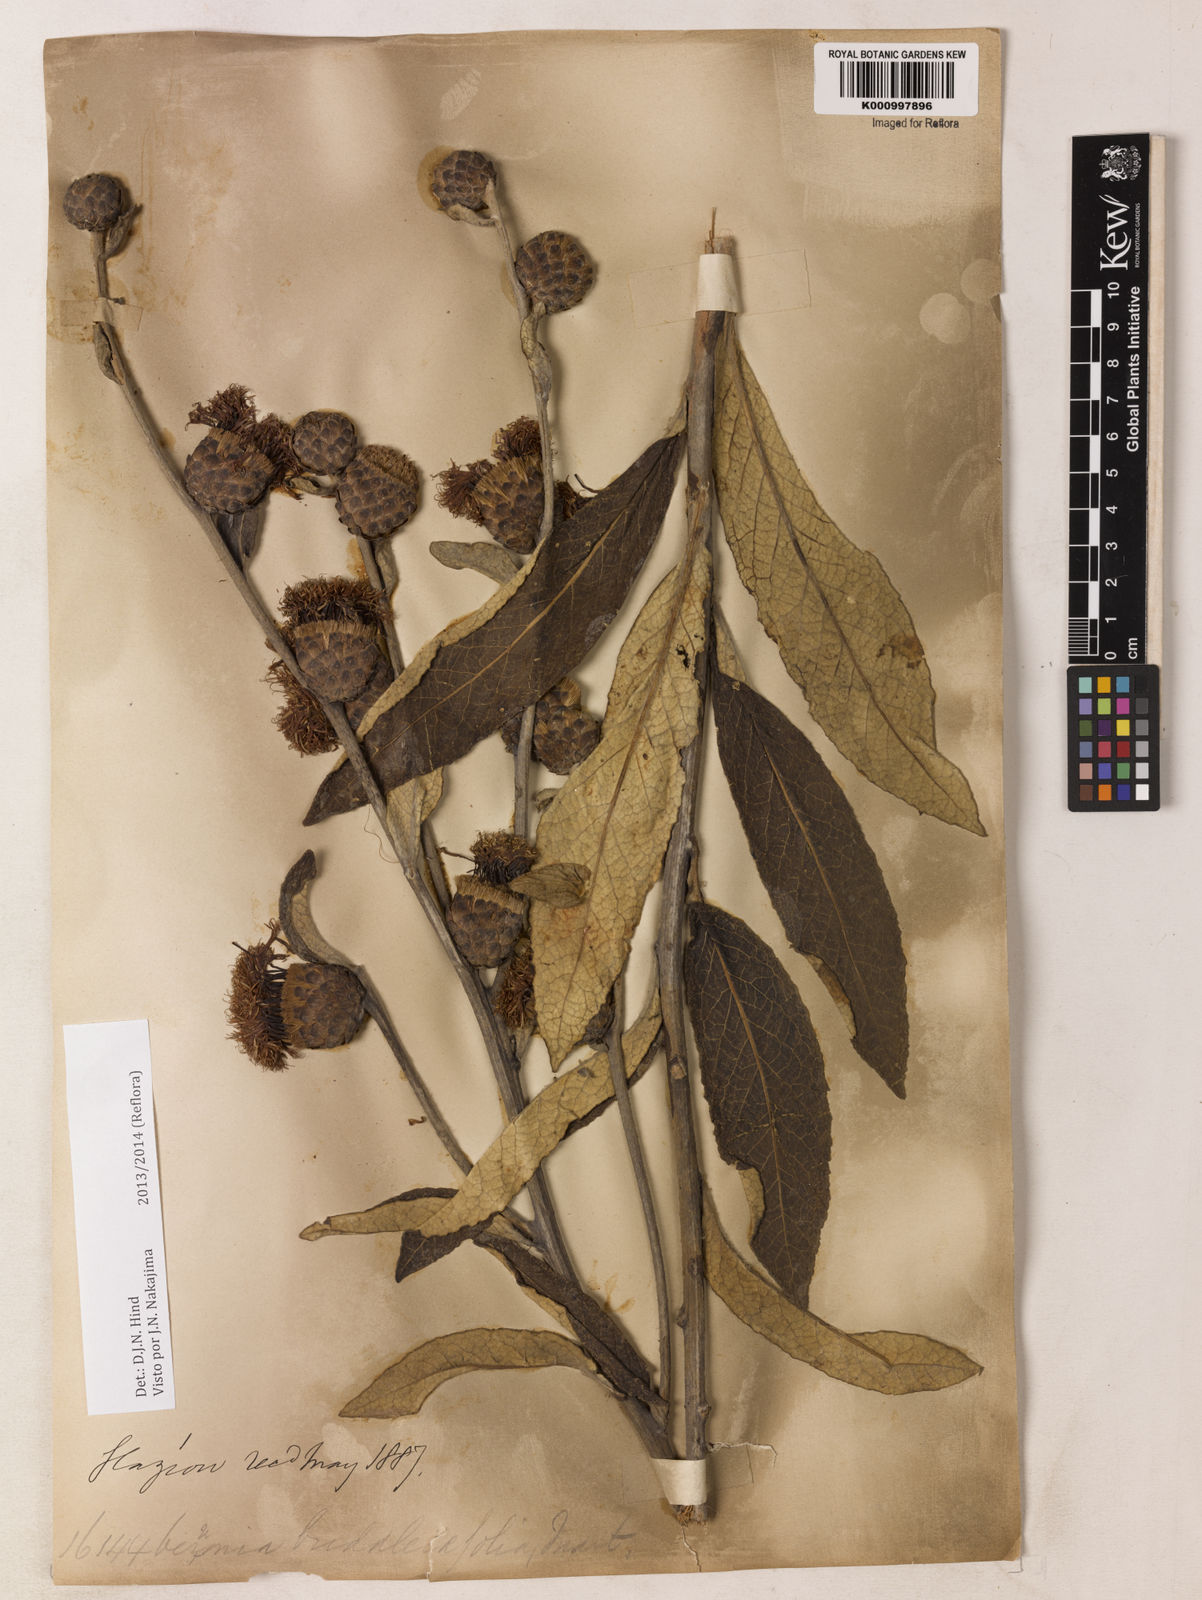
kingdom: Plantae
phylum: Tracheophyta
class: Magnoliopsida
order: Asterales
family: Asteraceae
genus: Lessingianthus
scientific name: Lessingianthus buddlejifolius
